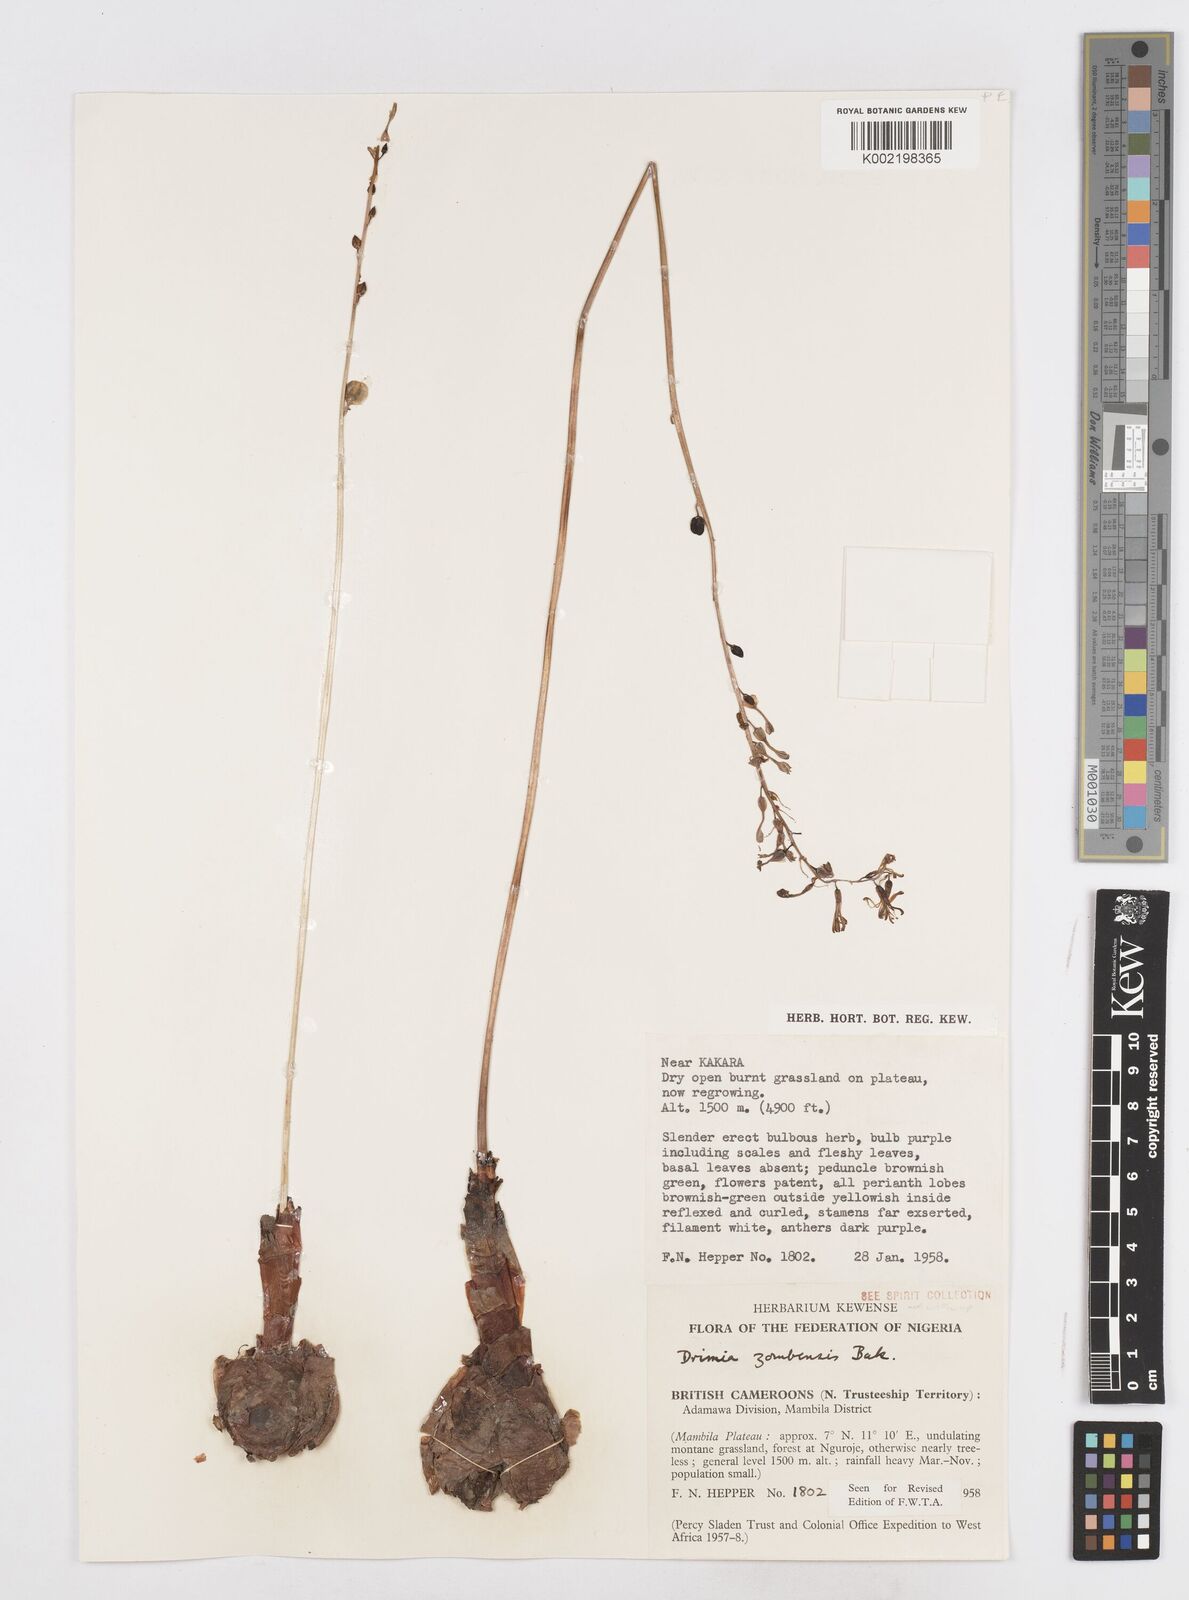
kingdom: Plantae
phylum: Tracheophyta
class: Liliopsida
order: Asparagales
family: Asparagaceae
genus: Drimia
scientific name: Drimia elata
